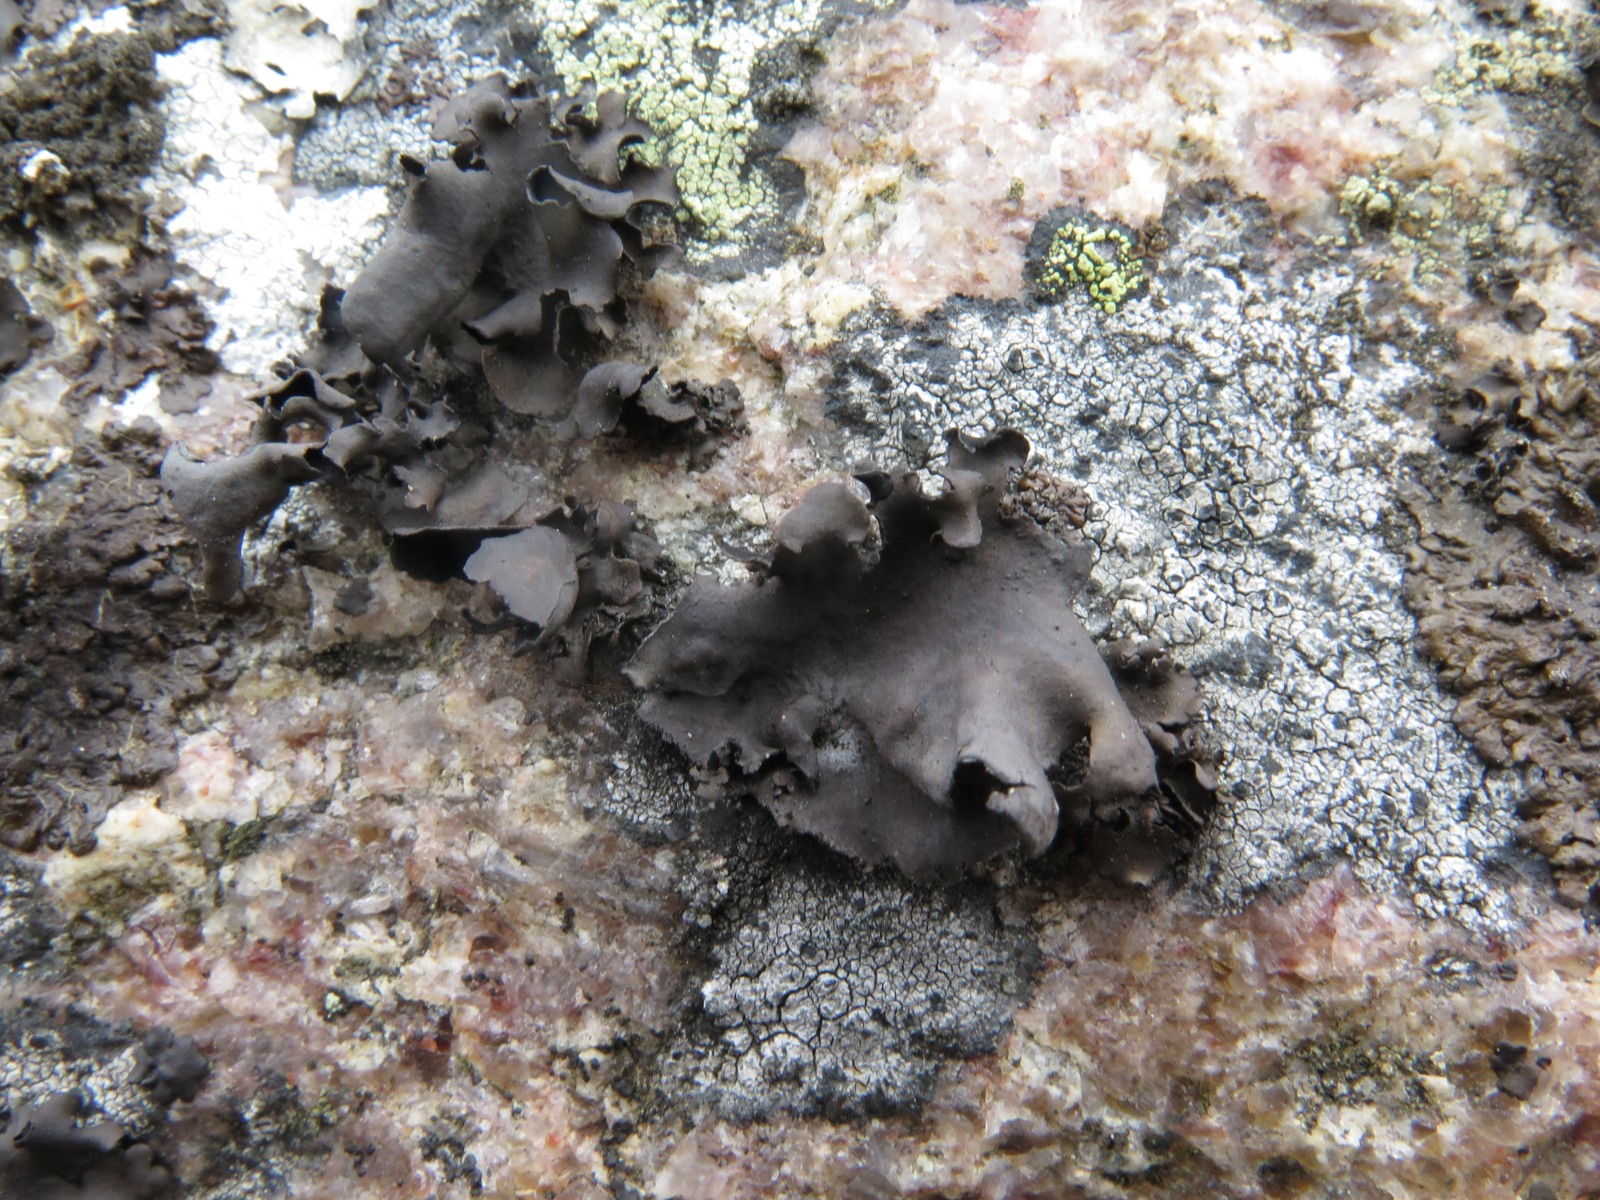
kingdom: Fungi
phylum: Ascomycota
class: Lecanoromycetes
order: Umbilicariales
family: Umbilicariaceae
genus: Umbilicaria
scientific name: Umbilicaria polyphylla
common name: glat navlelav
